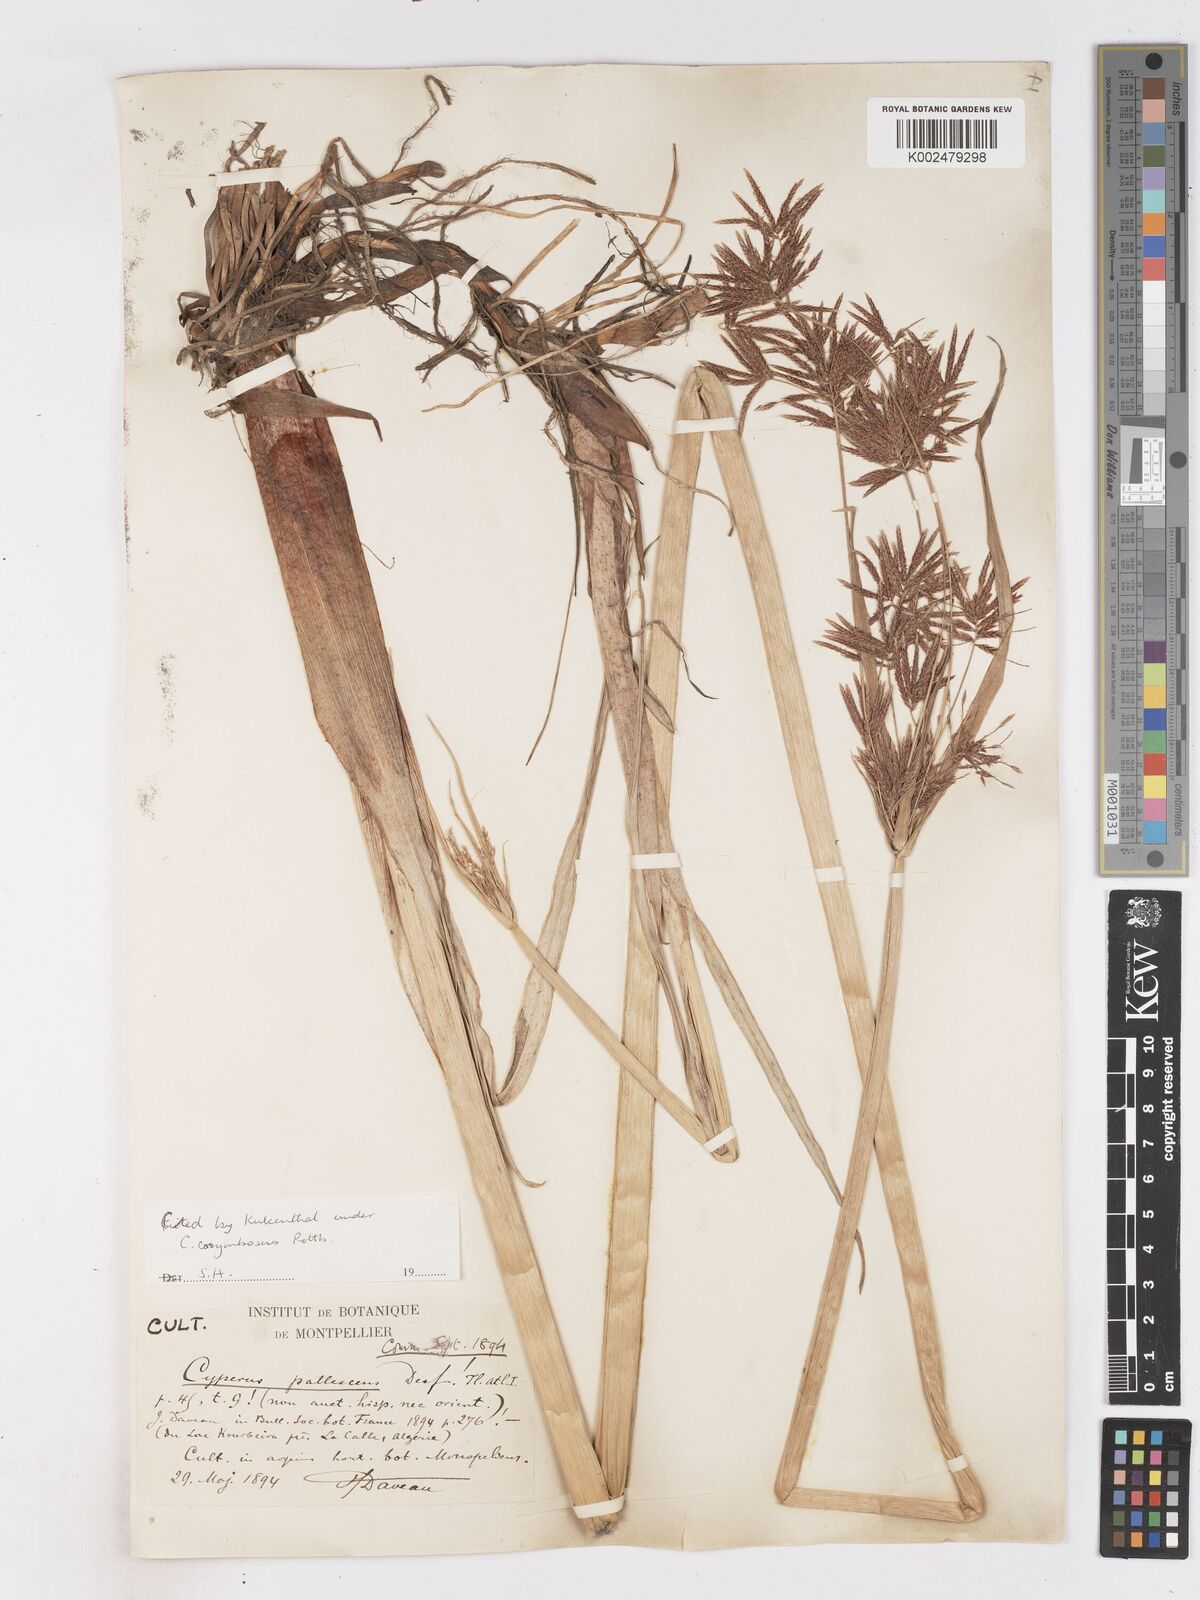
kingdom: Plantae
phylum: Tracheophyta
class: Liliopsida
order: Poales
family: Cyperaceae
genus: Cyperus
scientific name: Cyperus denudatus
